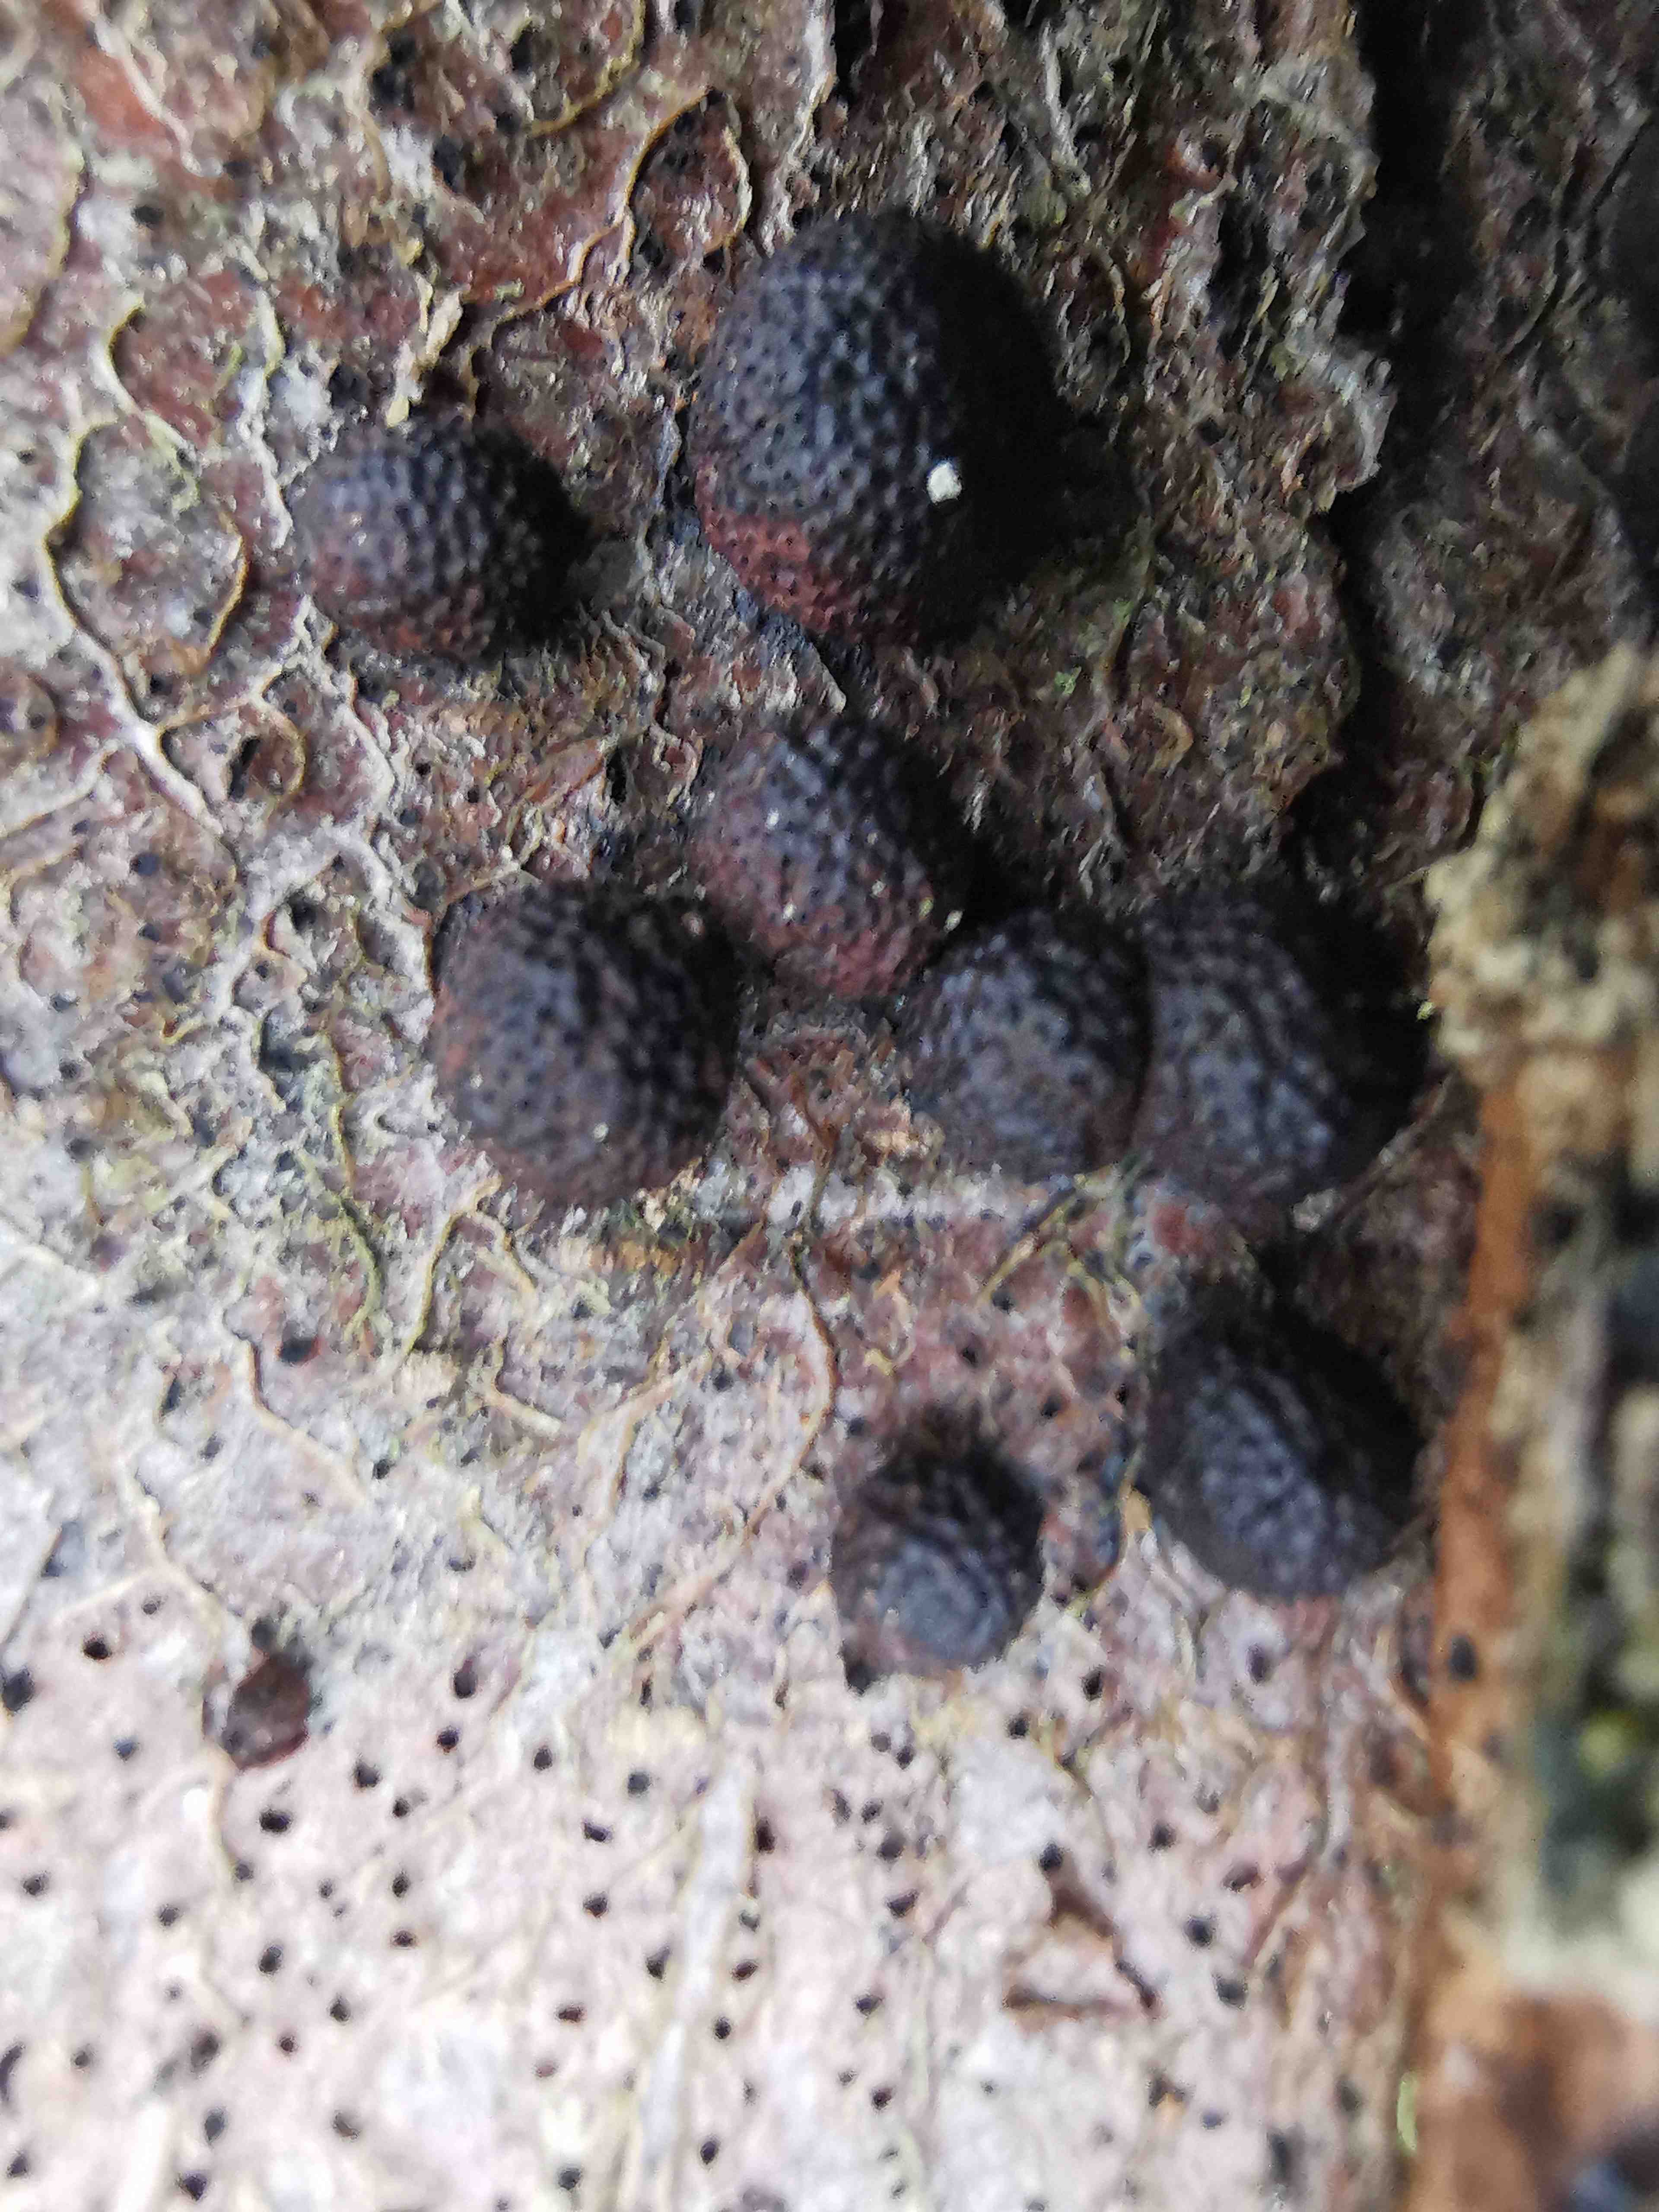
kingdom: Fungi
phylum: Ascomycota
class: Sordariomycetes
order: Xylariales
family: Hypoxylaceae
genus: Hypoxylon
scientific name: Hypoxylon fragiforme
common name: kuljordbær
